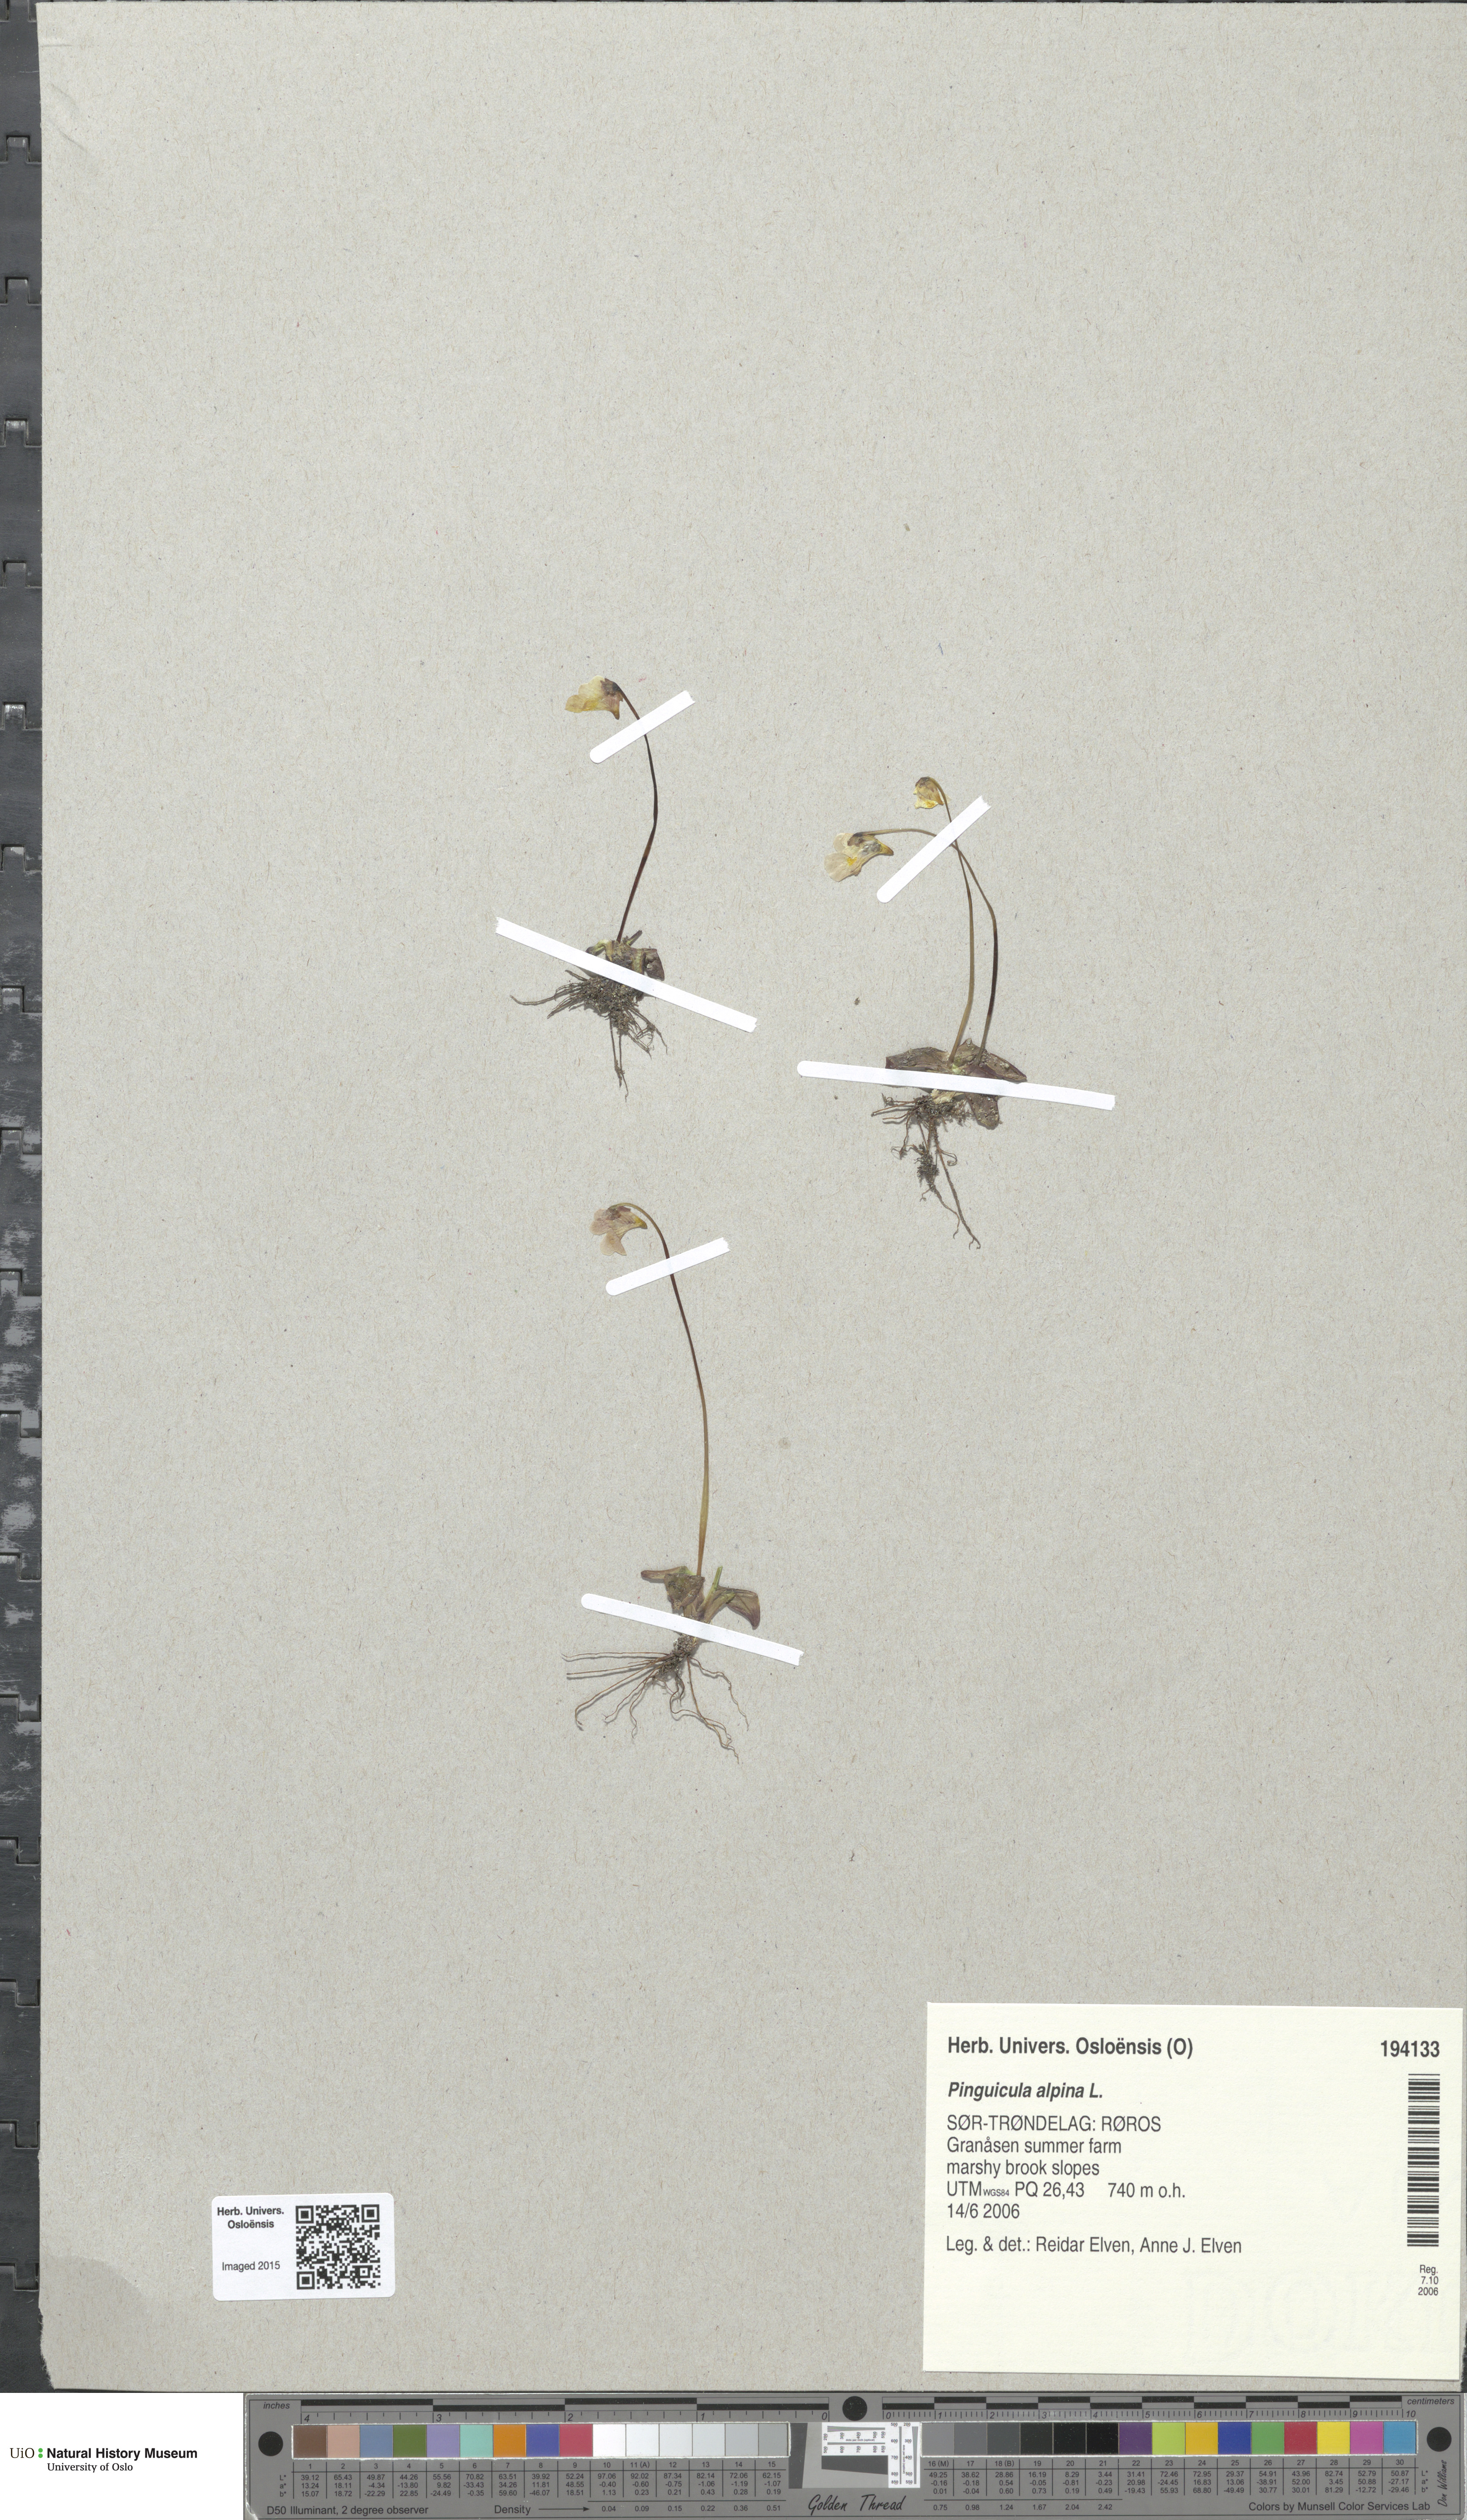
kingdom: Plantae
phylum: Tracheophyta
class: Magnoliopsida
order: Lamiales
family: Lentibulariaceae
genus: Pinguicula
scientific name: Pinguicula alpina
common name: Alpine butterwort
